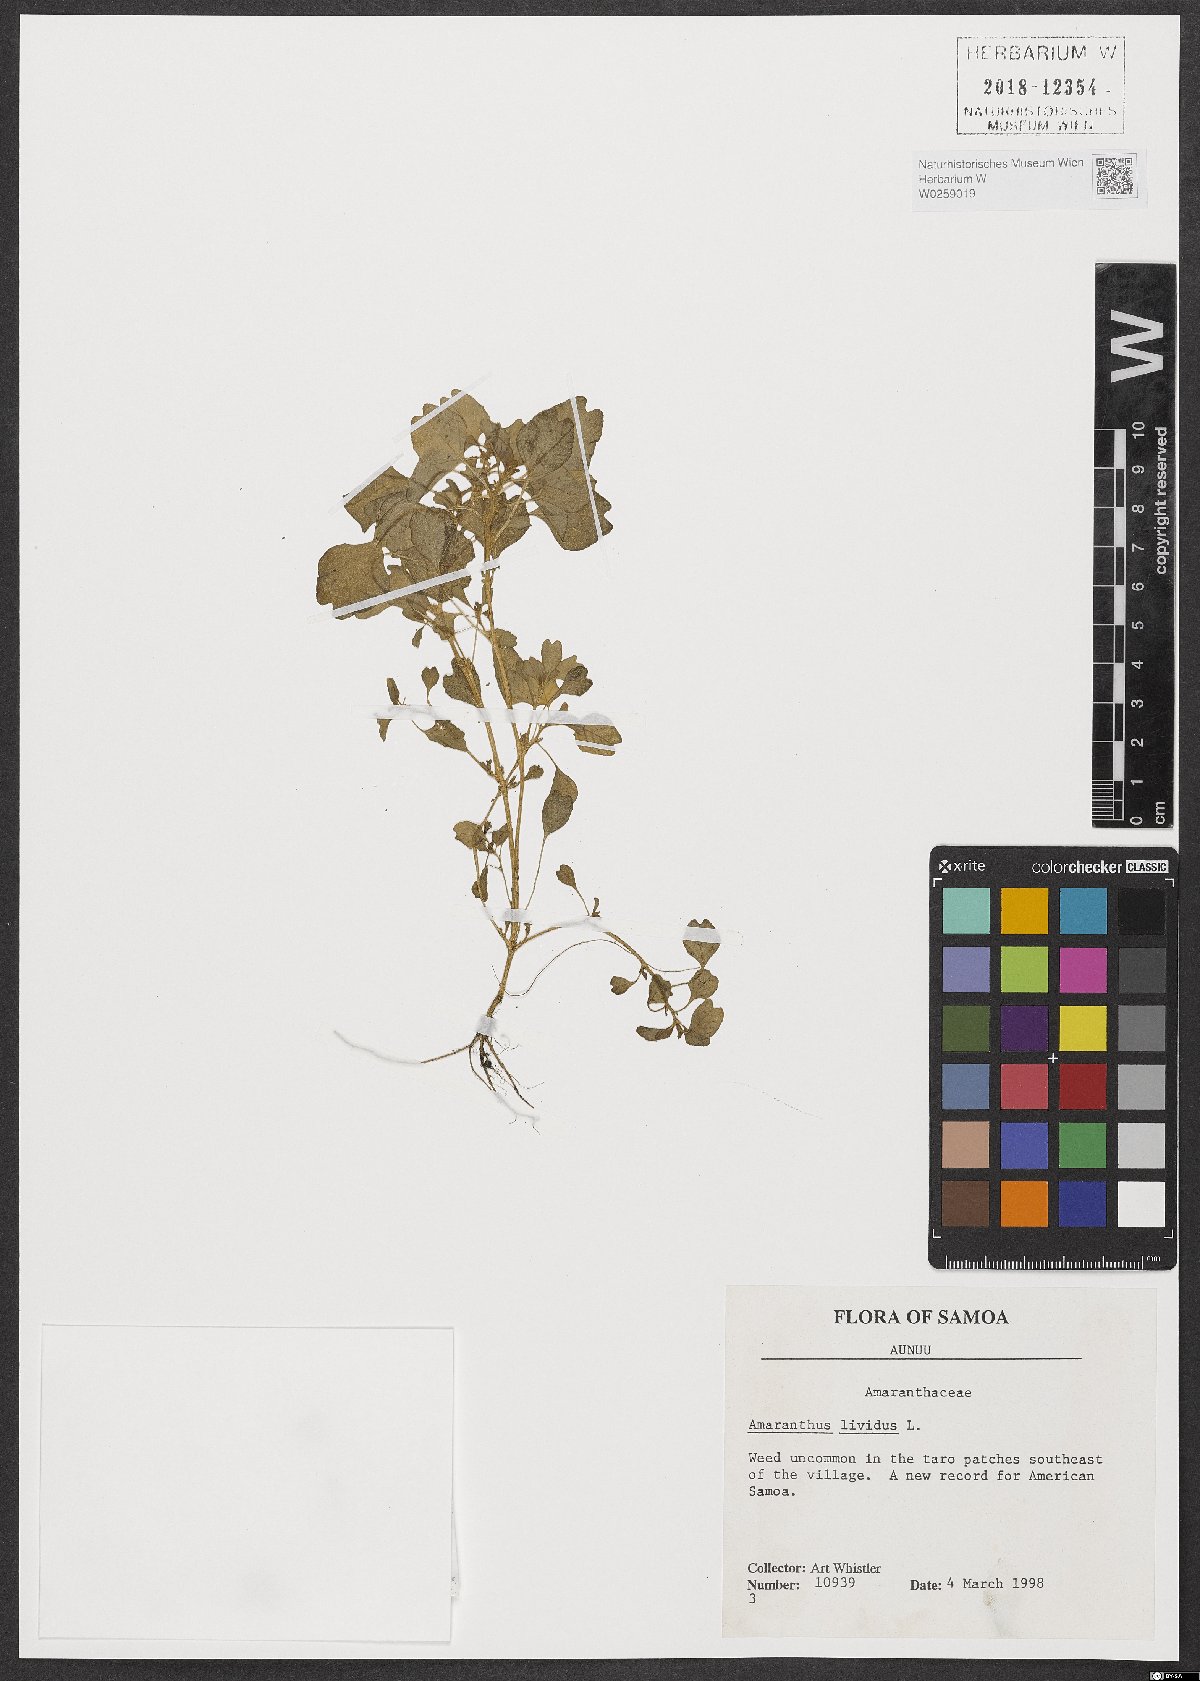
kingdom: Plantae
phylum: Tracheophyta
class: Magnoliopsida
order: Caryophyllales
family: Amaranthaceae
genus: Amaranthus
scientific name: Amaranthus blitum
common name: Purple amaranth
